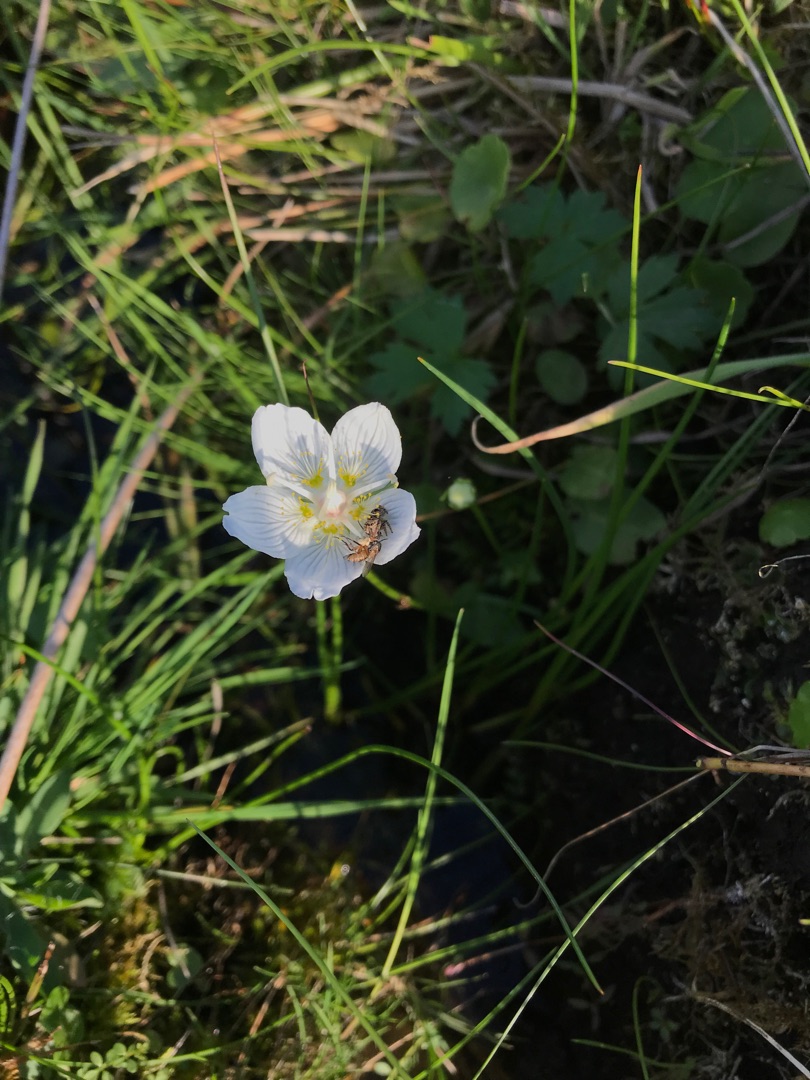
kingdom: Plantae
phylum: Tracheophyta
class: Magnoliopsida
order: Celastrales
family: Parnassiaceae
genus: Parnassia
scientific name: Parnassia palustris
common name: Leverurt
